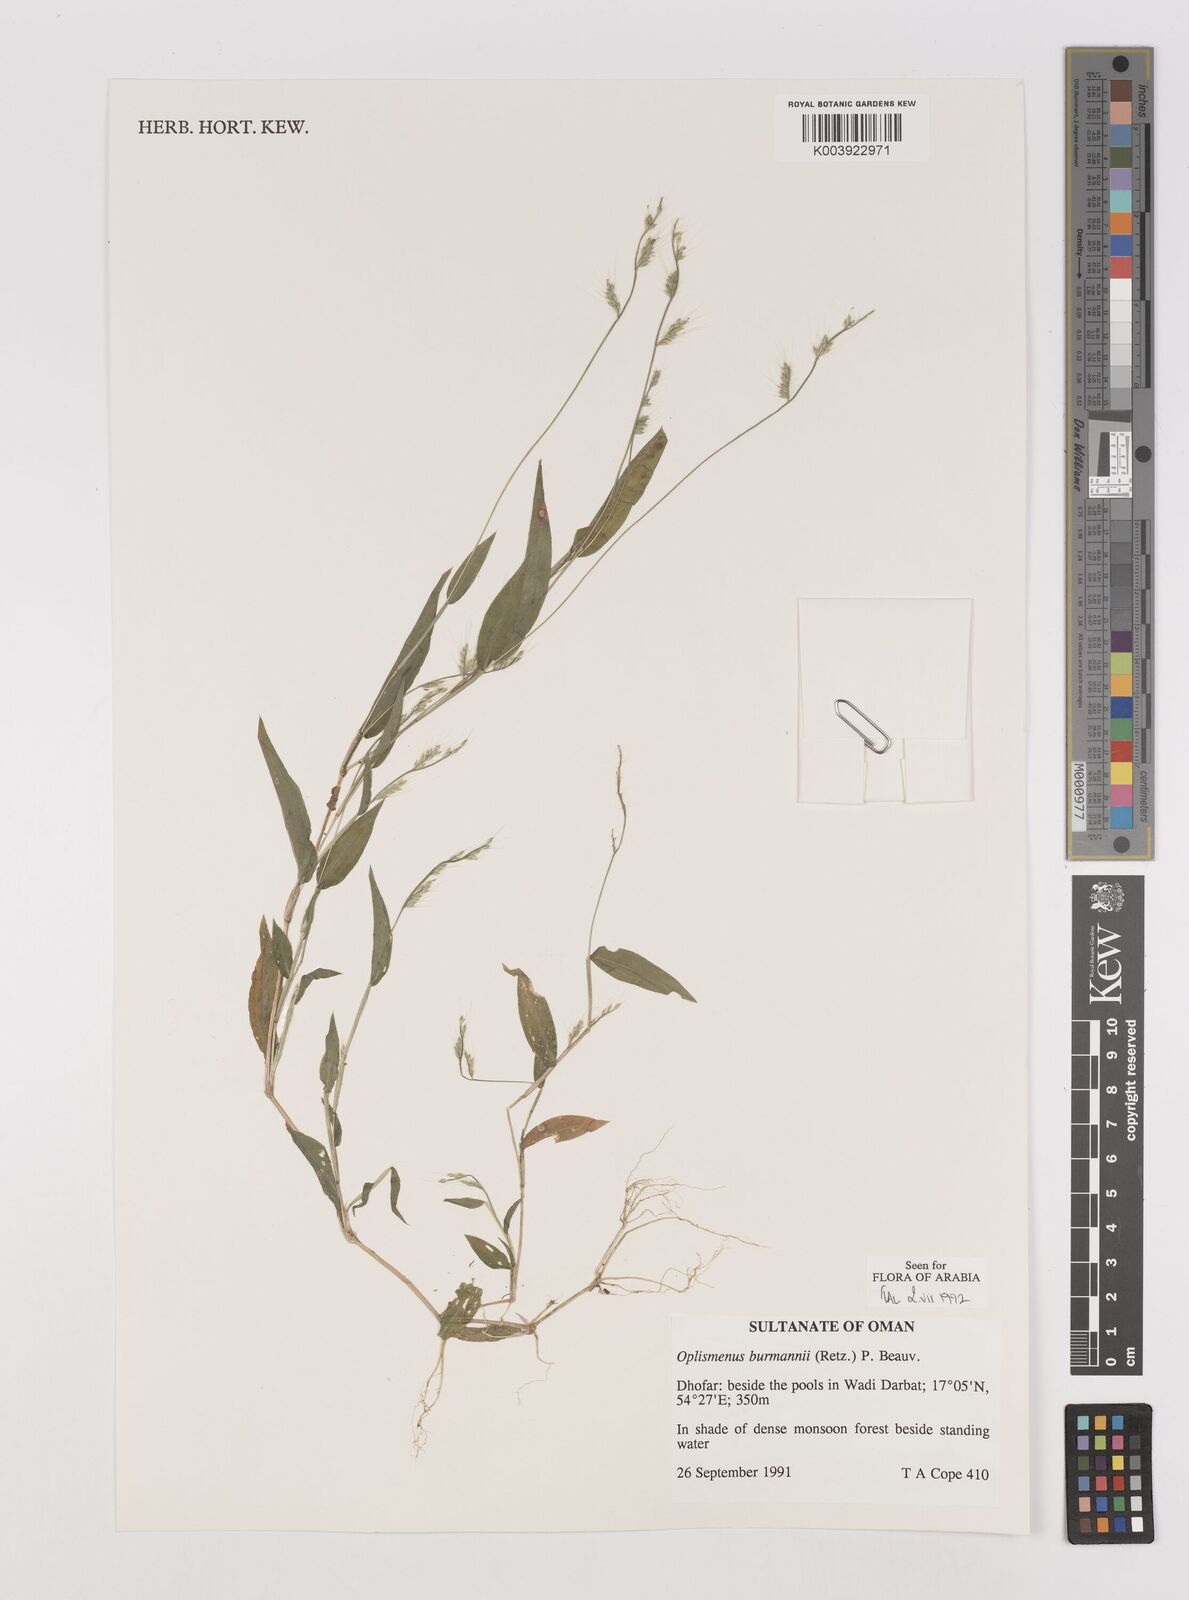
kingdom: Plantae
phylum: Tracheophyta
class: Liliopsida
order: Poales
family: Poaceae
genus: Oplismenus
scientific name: Oplismenus burmanni
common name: Burmann's basketgrass
